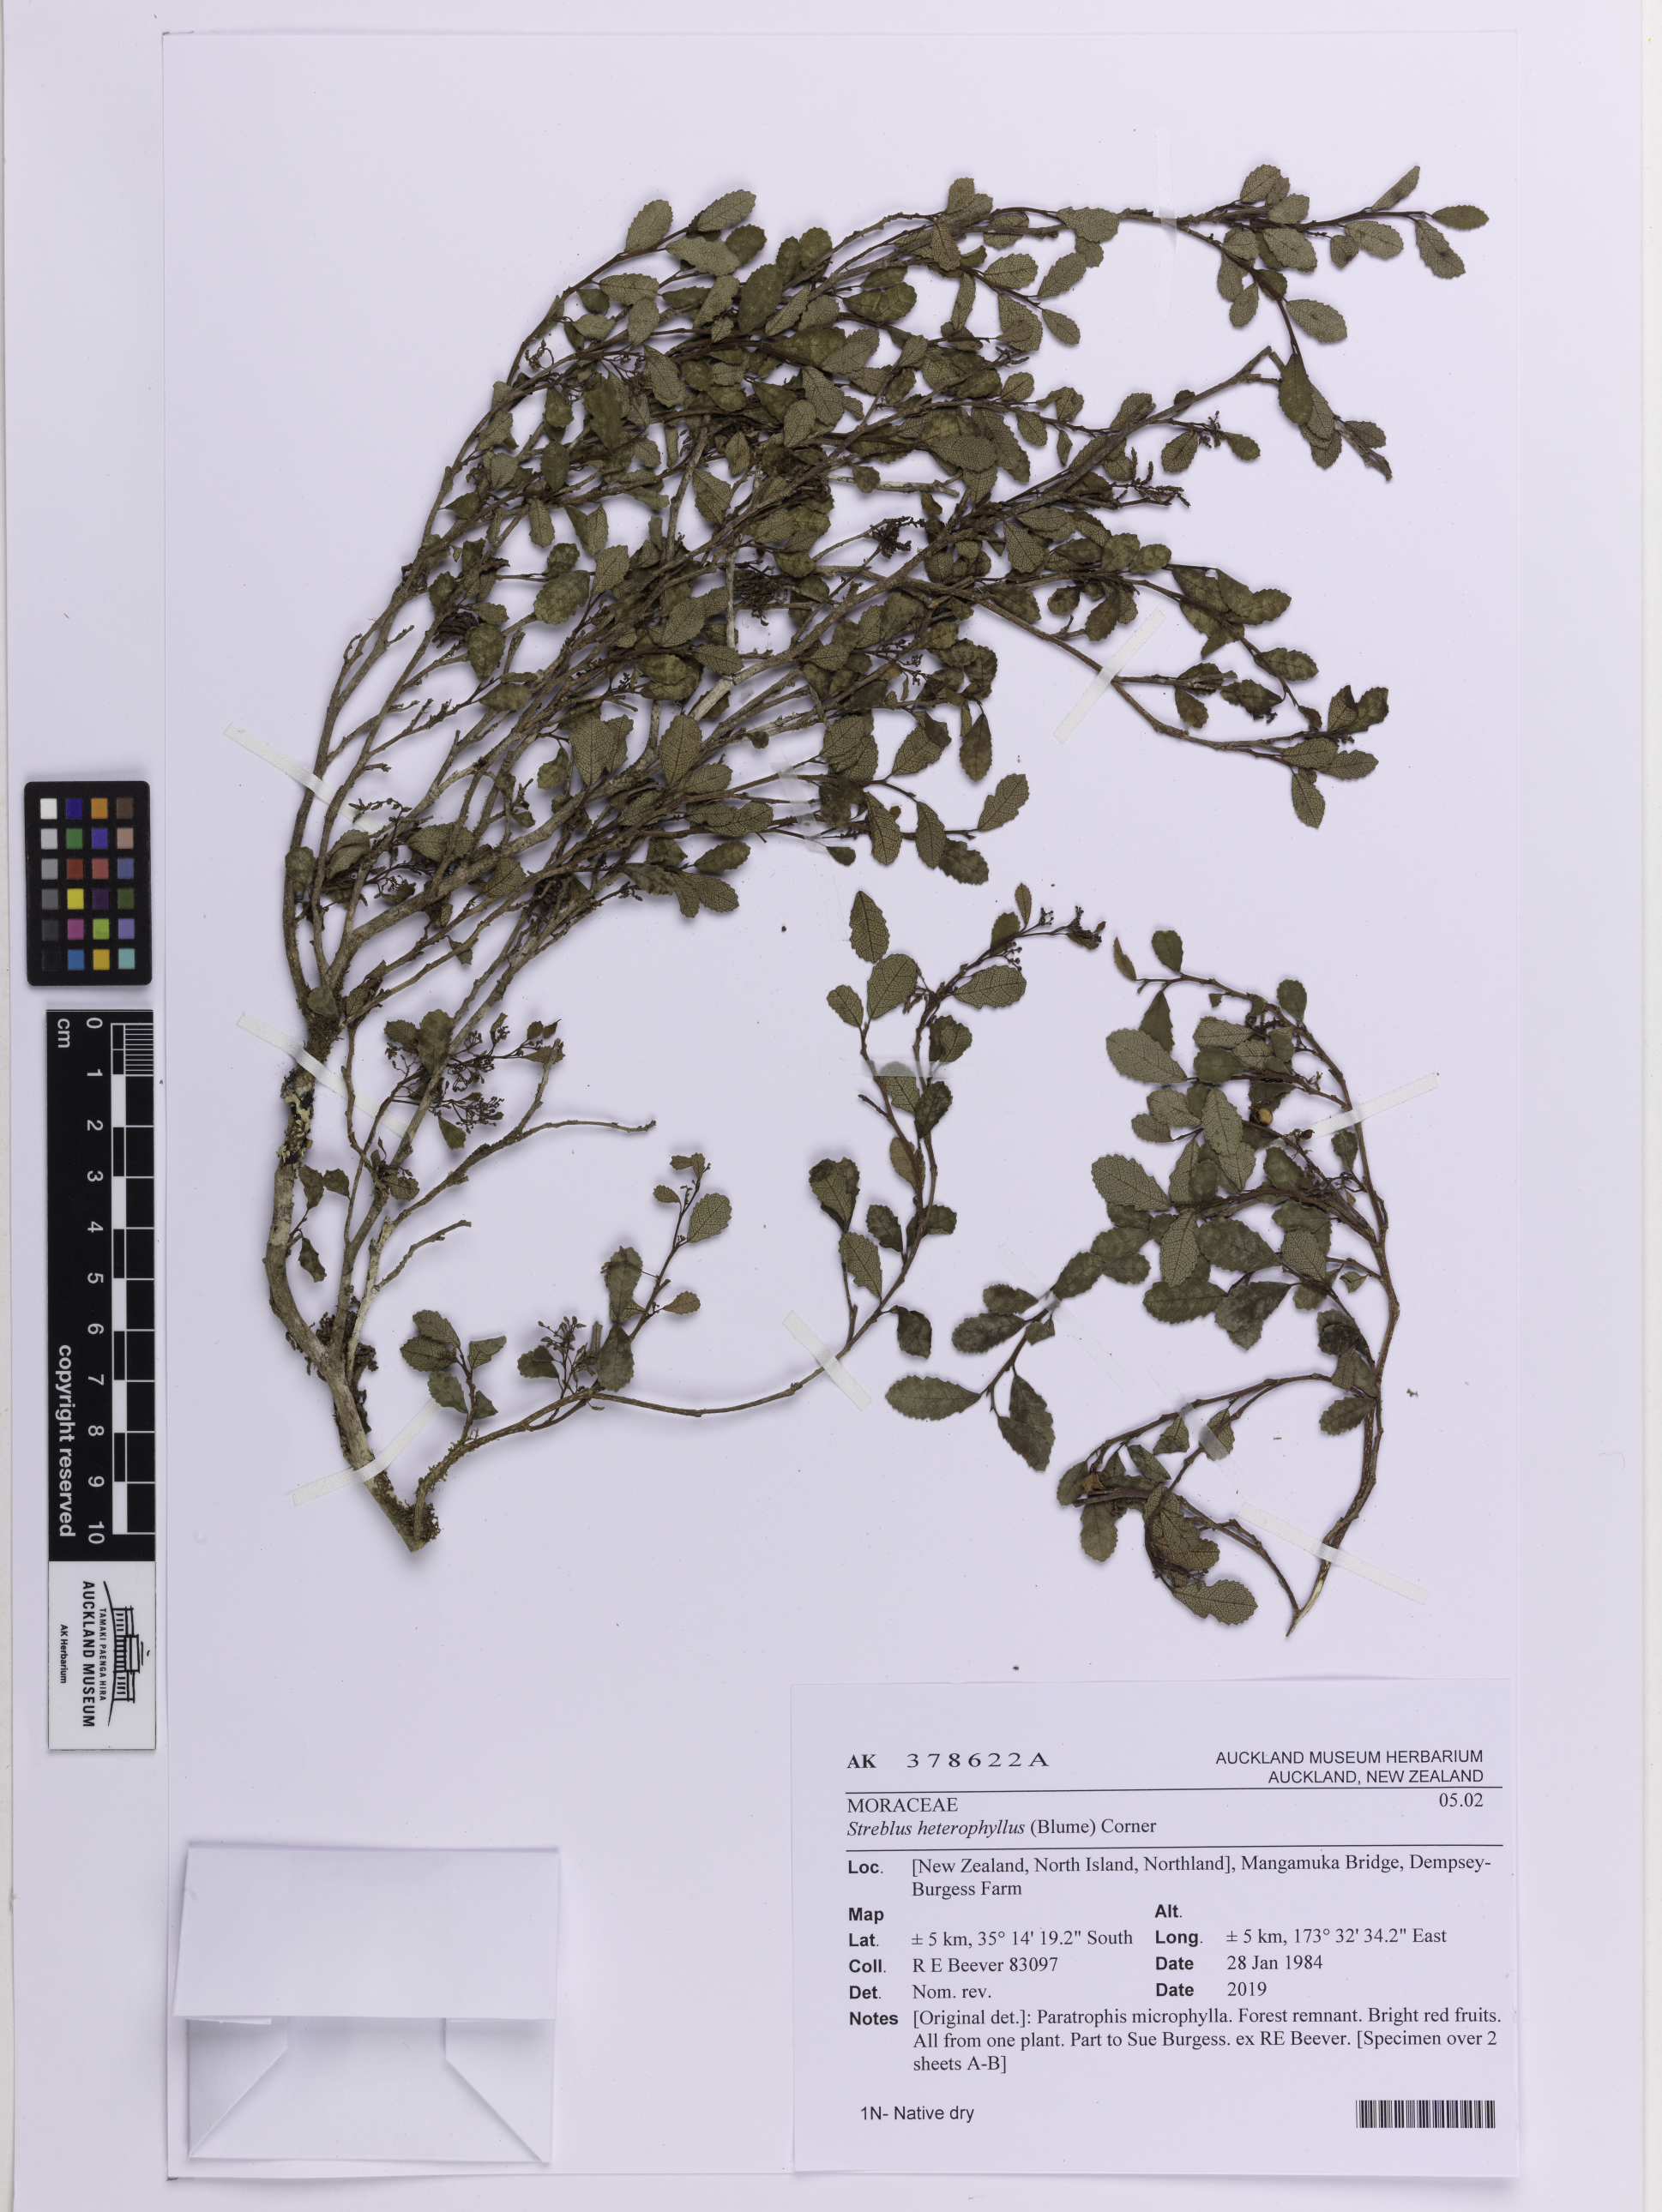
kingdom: Plantae
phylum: Tracheophyta
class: Magnoliopsida
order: Rosales
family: Moraceae
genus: Paratrophis
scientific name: Paratrophis microphylla
